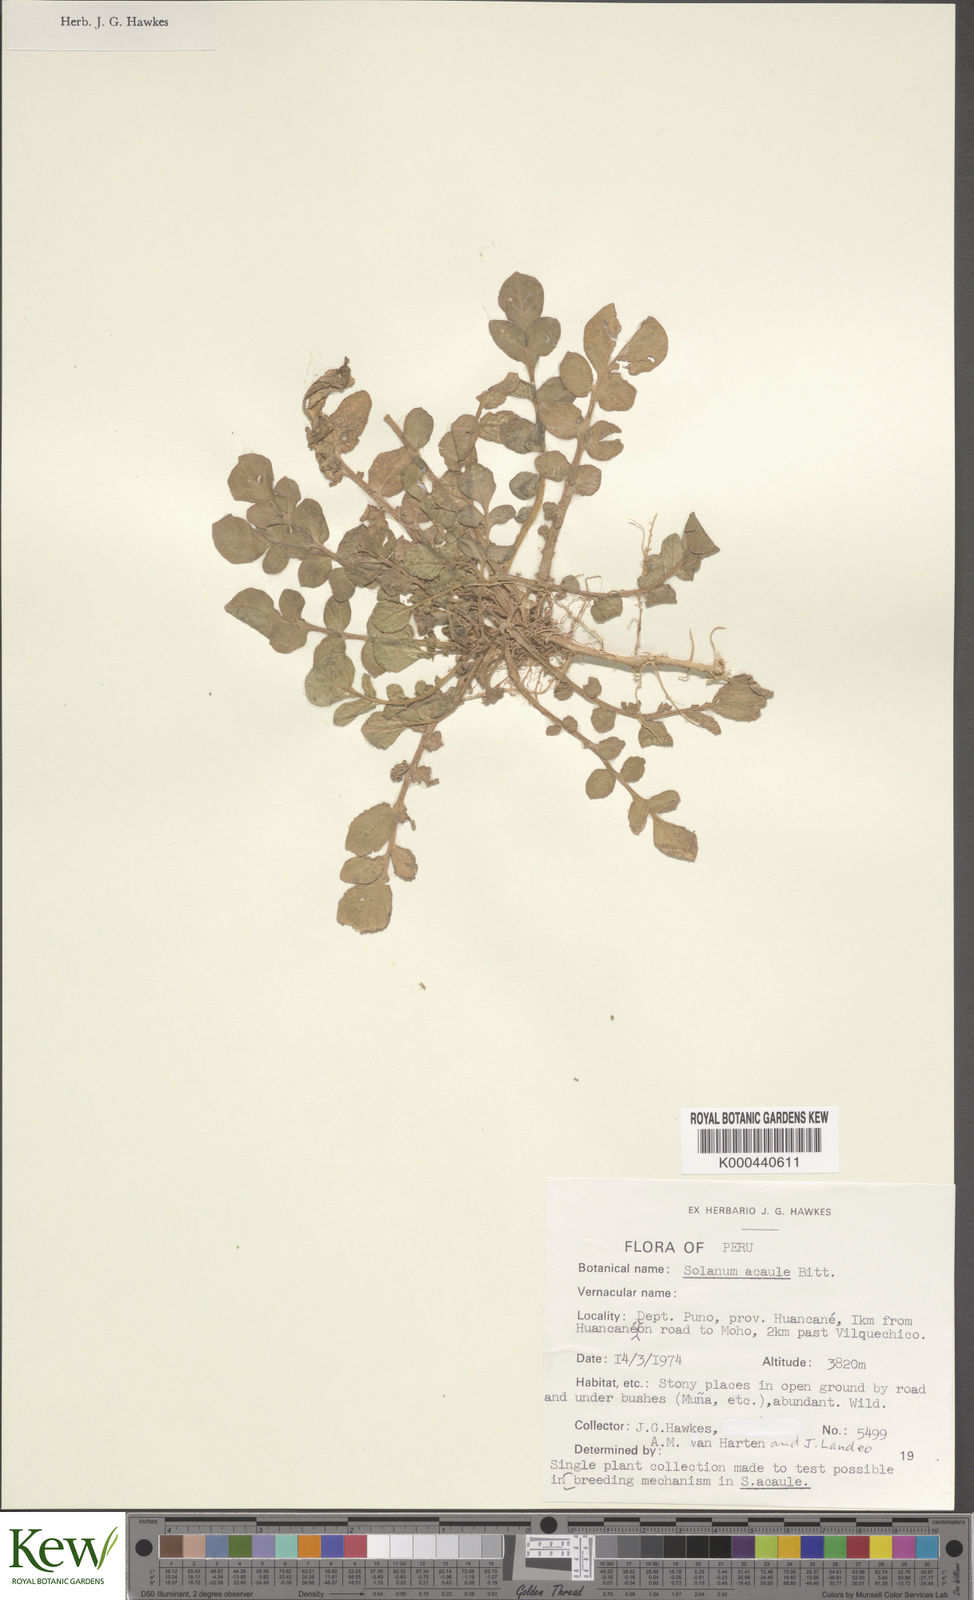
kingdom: Plantae
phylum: Tracheophyta
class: Magnoliopsida
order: Solanales
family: Solanaceae
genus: Solanum
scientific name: Solanum acaule
